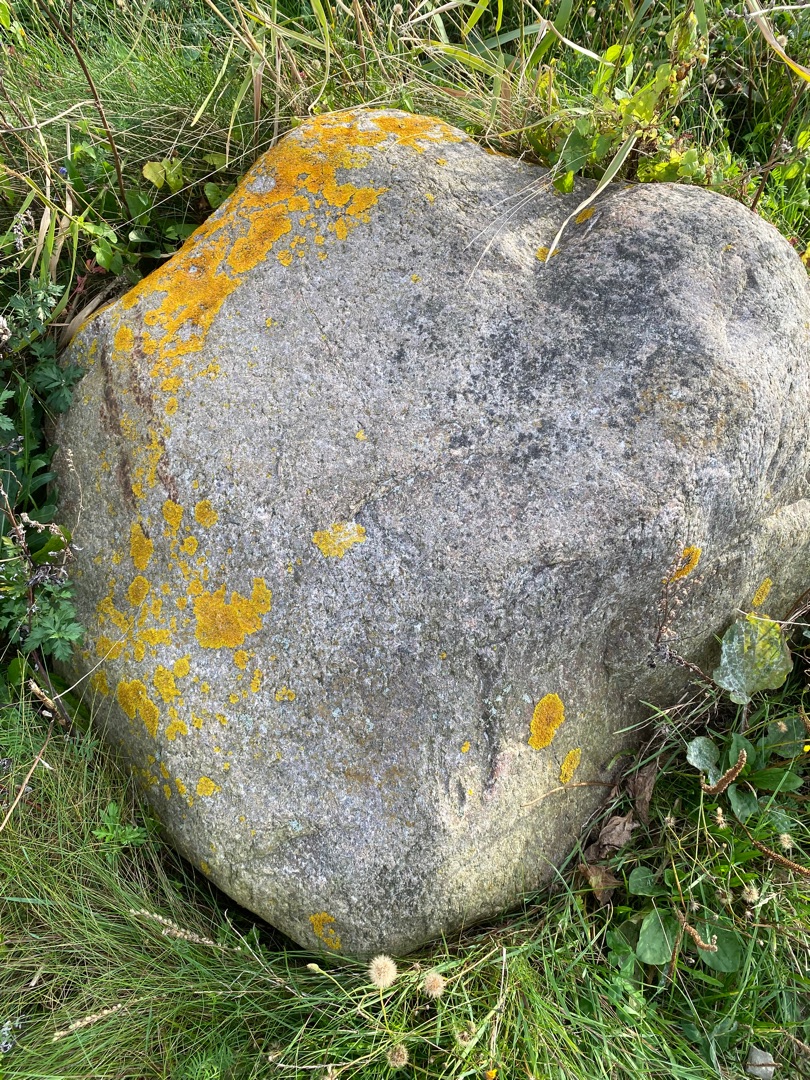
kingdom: Fungi
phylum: Ascomycota
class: Lecanoromycetes
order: Teloschistales
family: Teloschistaceae
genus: Xanthoria
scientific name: Xanthoria parietina
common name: Almindelig væggelav
